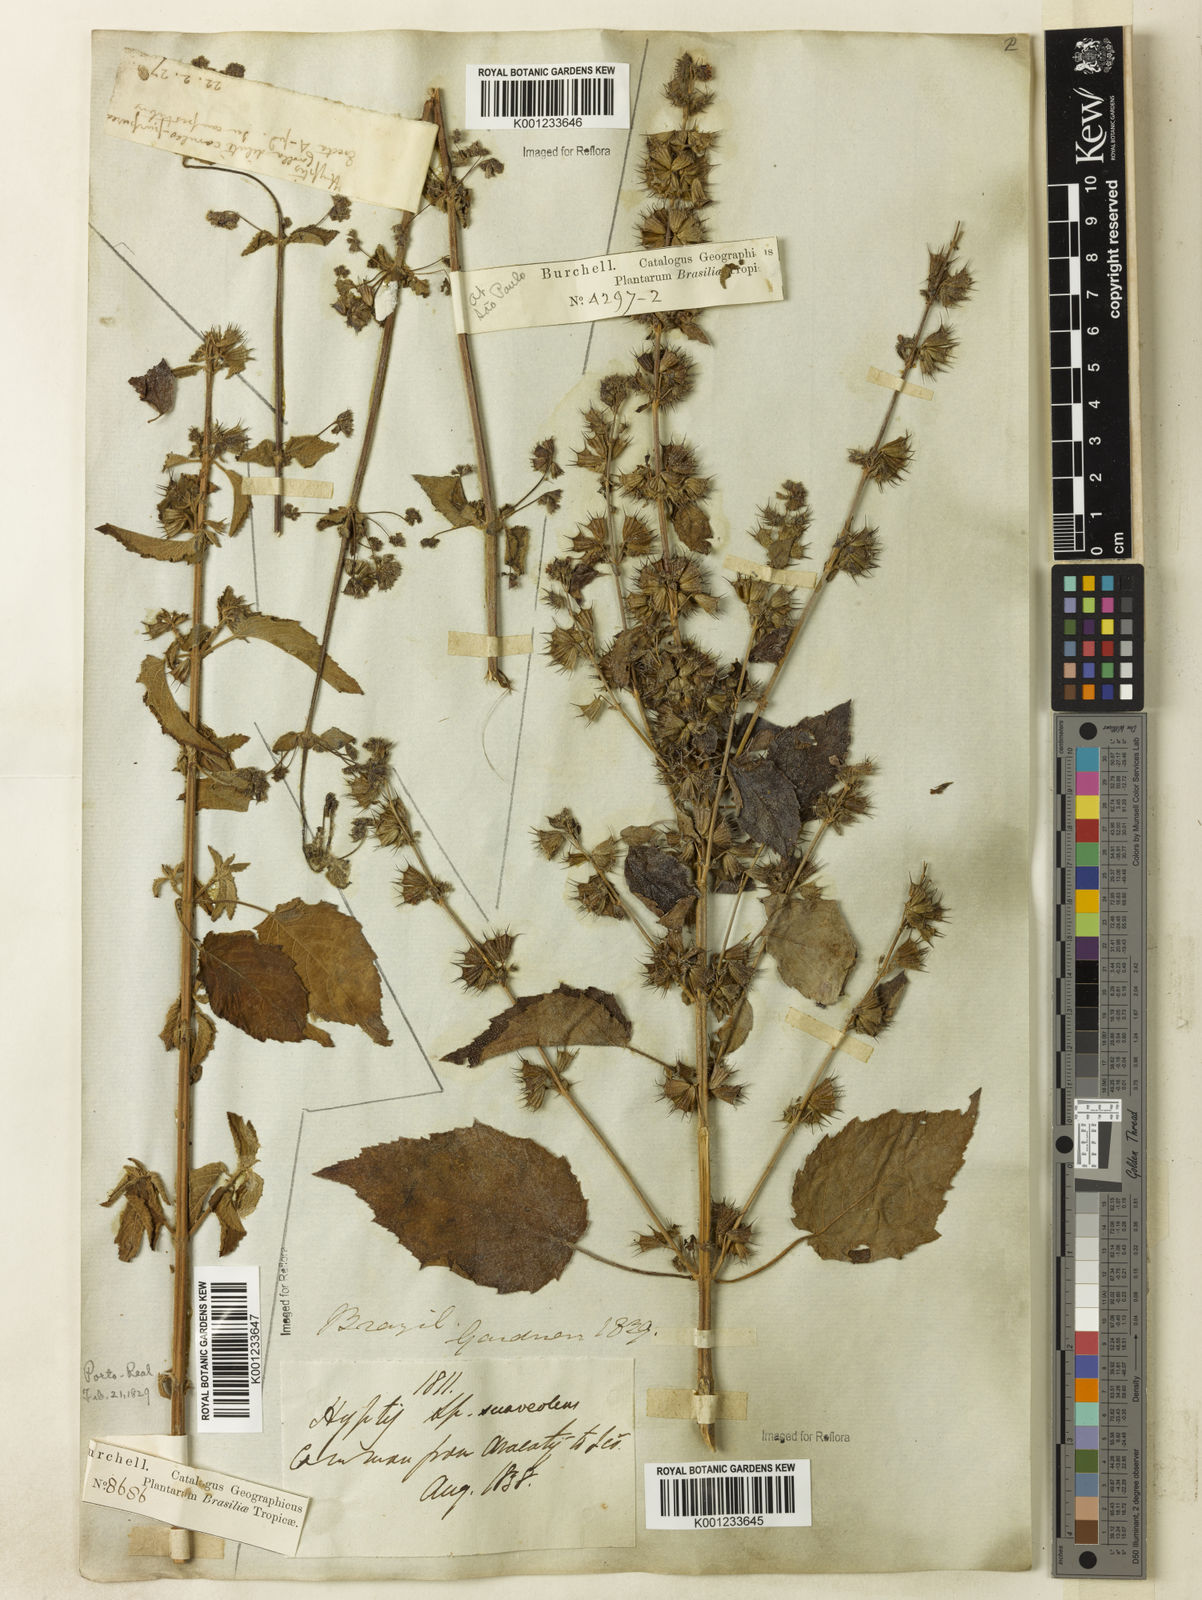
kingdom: Plantae
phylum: Tracheophyta
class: Magnoliopsida
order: Lamiales
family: Lamiaceae
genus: Mesosphaerum
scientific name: Mesosphaerum suaveolens
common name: Pignut
